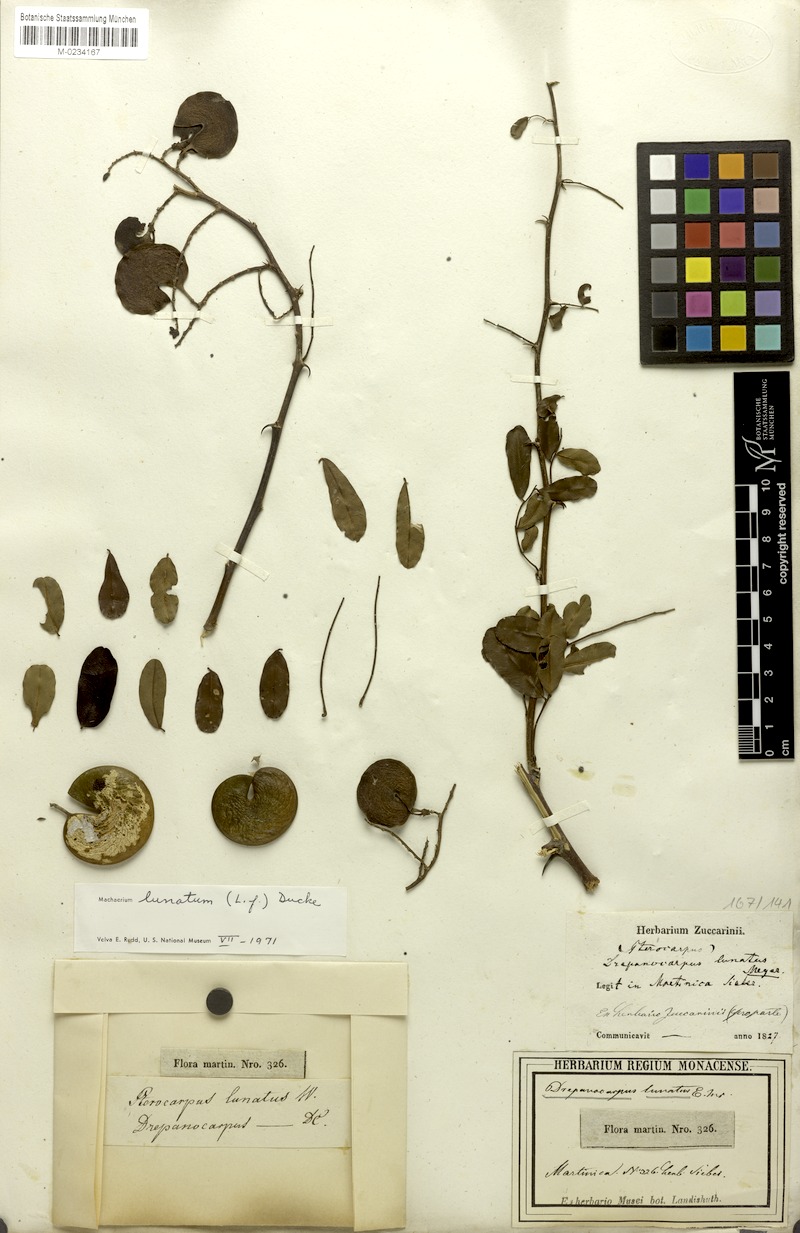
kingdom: Plantae
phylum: Tracheophyta
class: Magnoliopsida
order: Fabales
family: Fabaceae
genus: Machaerium
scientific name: Machaerium lunatum
